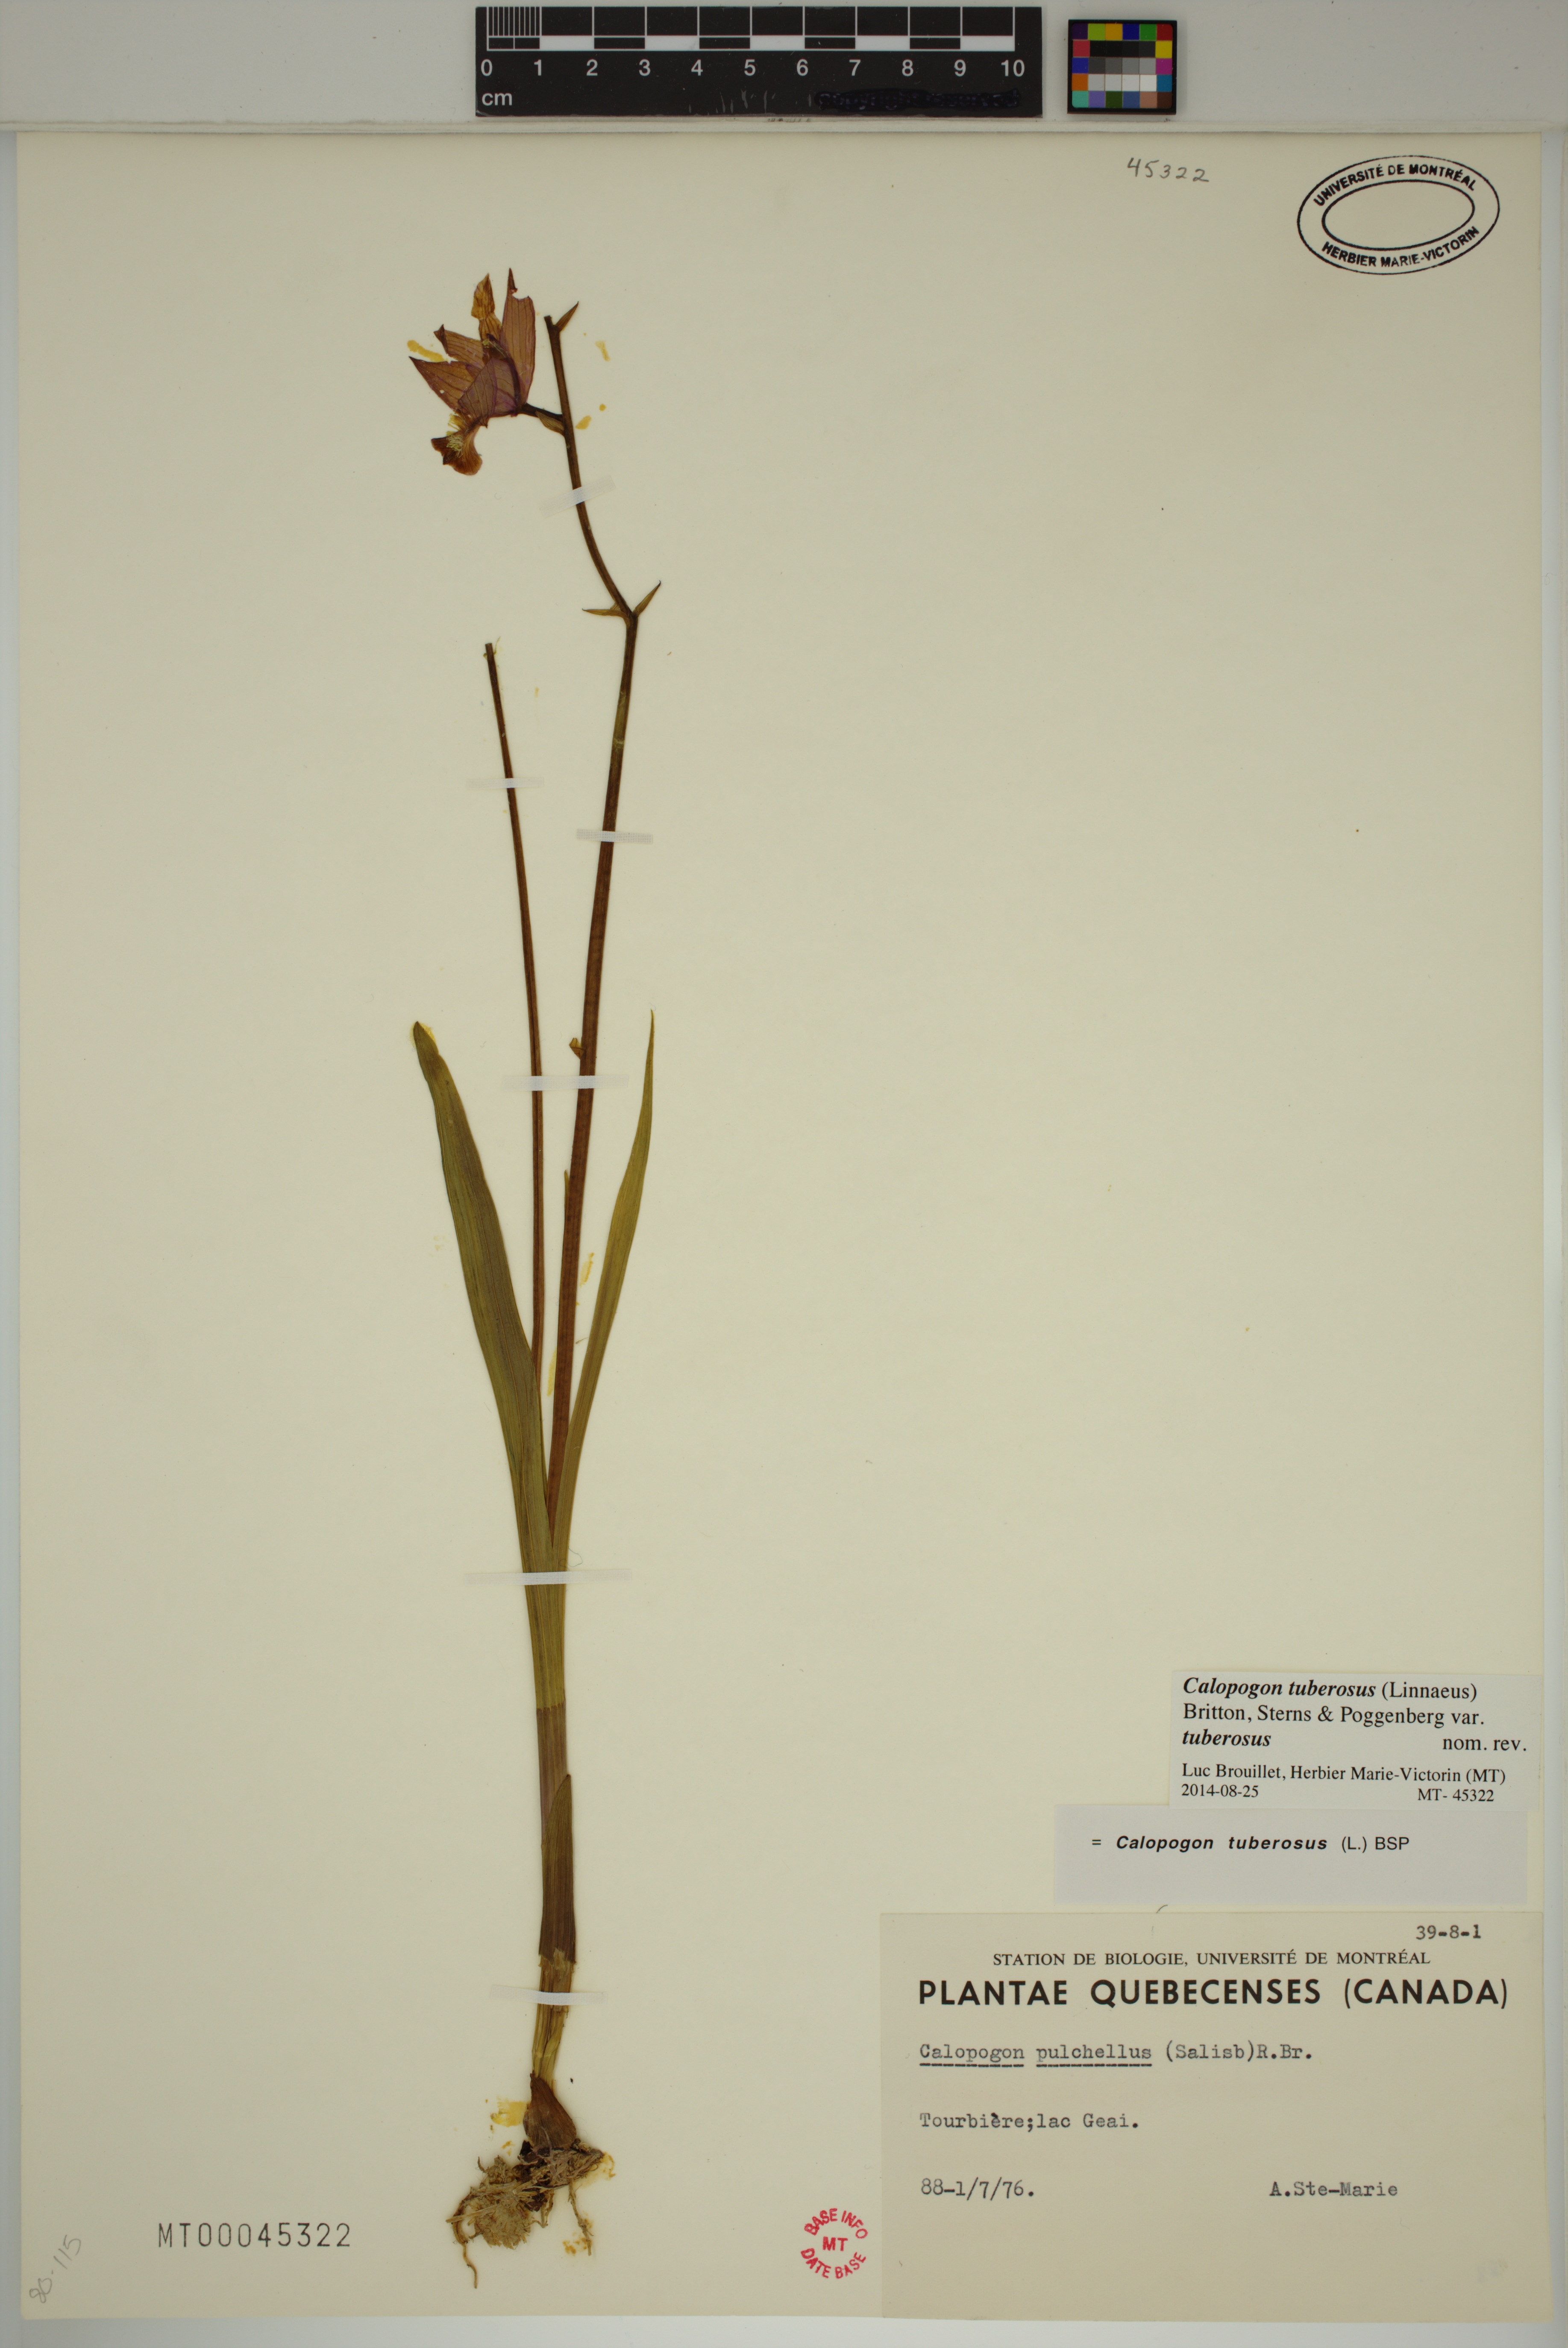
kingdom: Plantae
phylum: Tracheophyta
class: Liliopsida
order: Asparagales
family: Orchidaceae
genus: Calopogon
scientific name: Calopogon tuberosus
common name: Grass-pink
